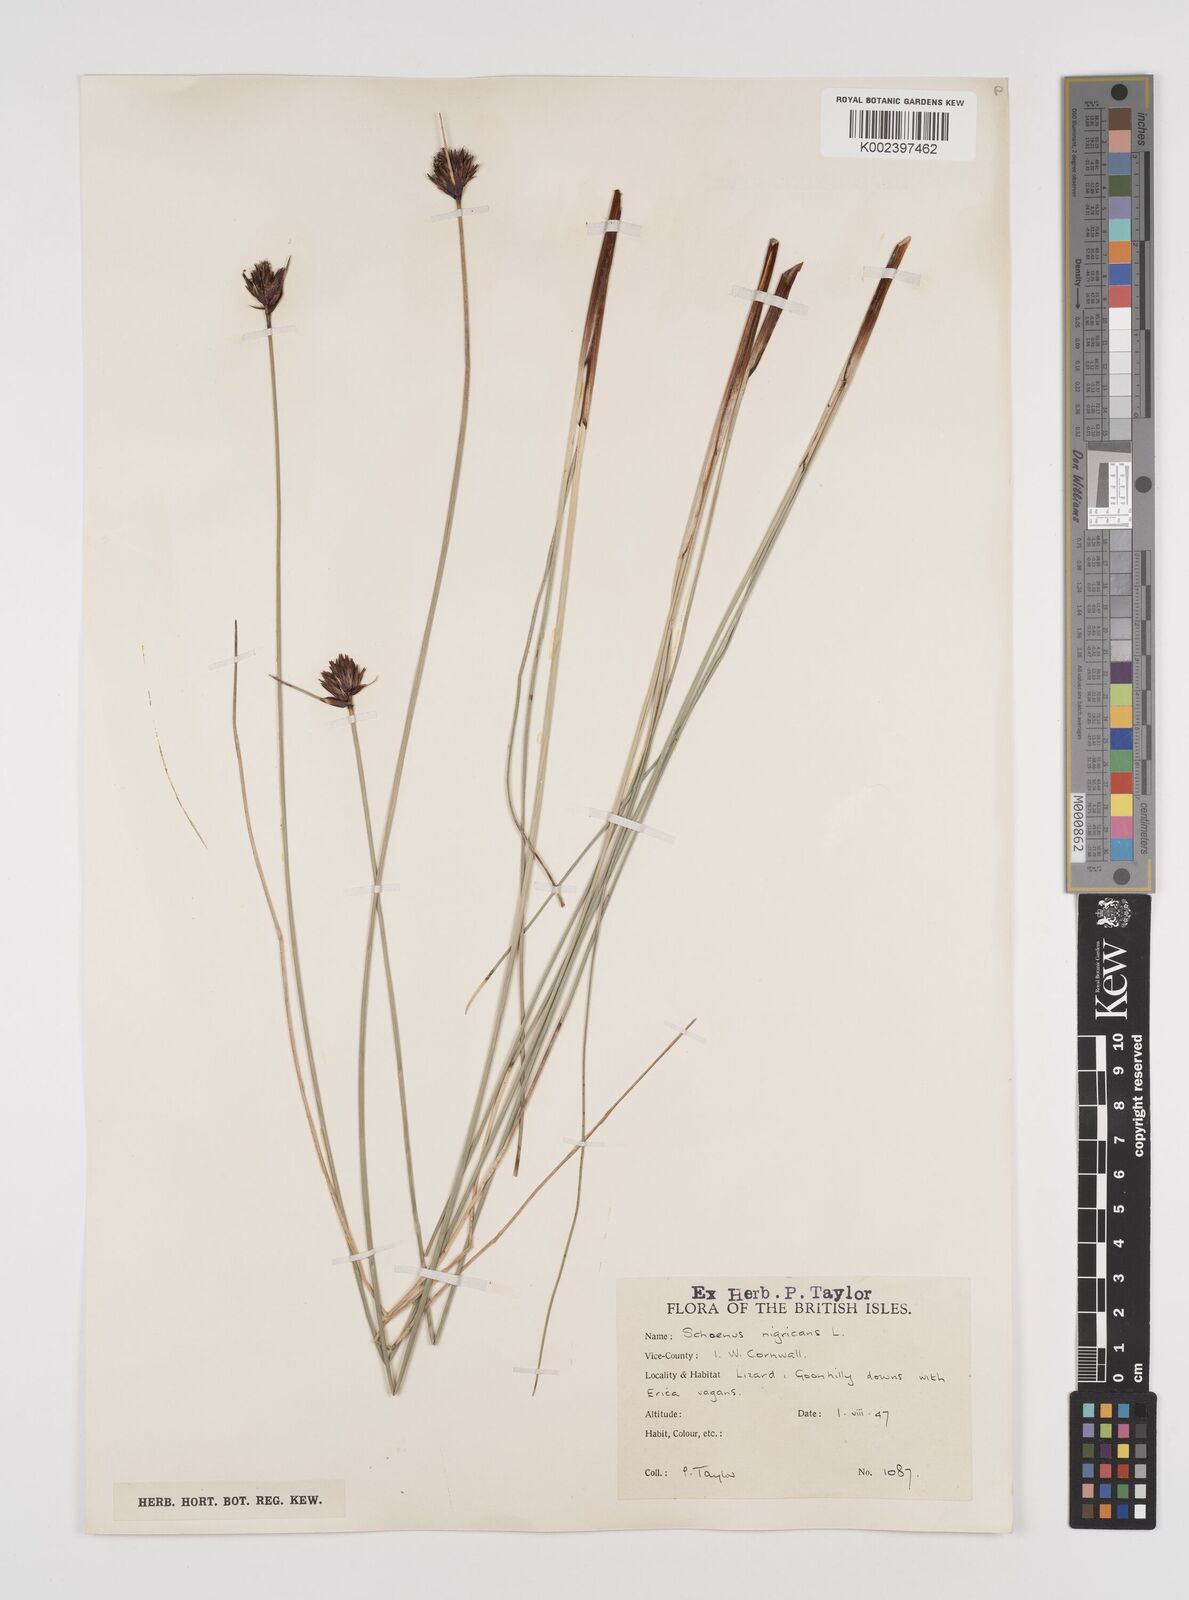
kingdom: Plantae
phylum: Tracheophyta
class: Liliopsida
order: Poales
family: Cyperaceae
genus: Schoenus
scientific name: Schoenus nigricans
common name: Black bog-rush
